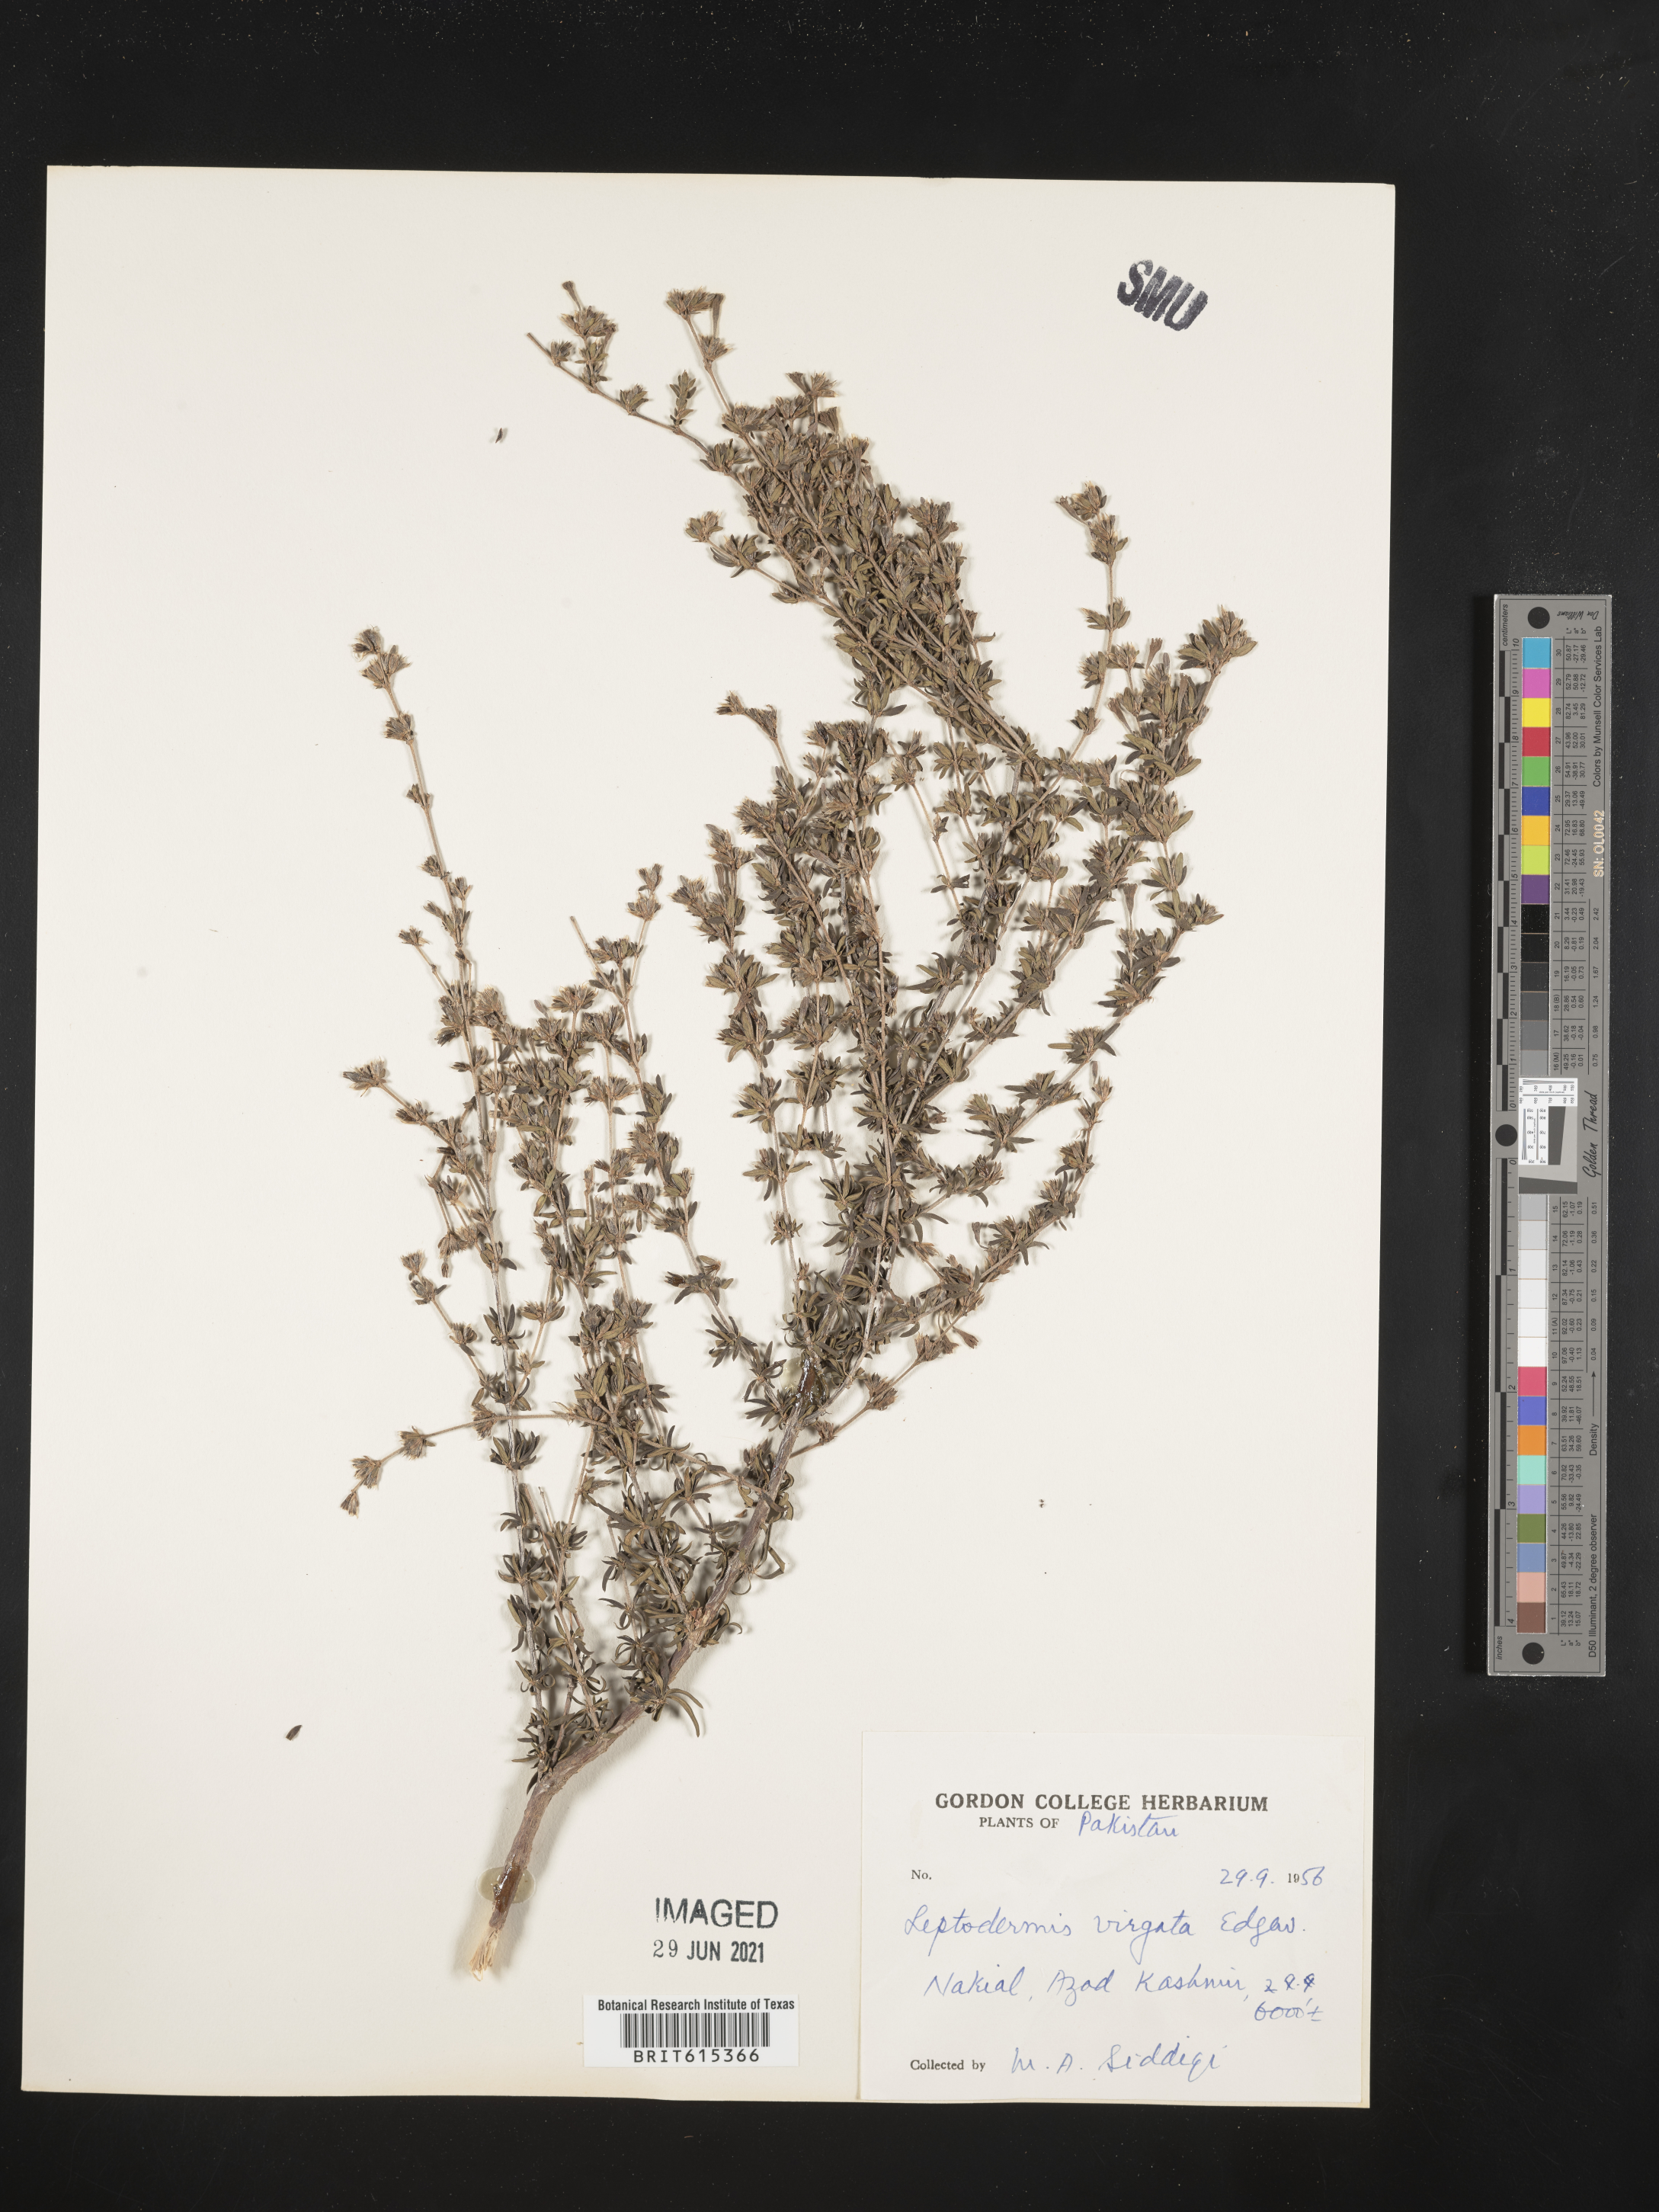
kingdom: Plantae
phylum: Tracheophyta
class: Magnoliopsida
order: Gentianales
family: Rubiaceae
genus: Leptodermis
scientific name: Leptodermis virgata
